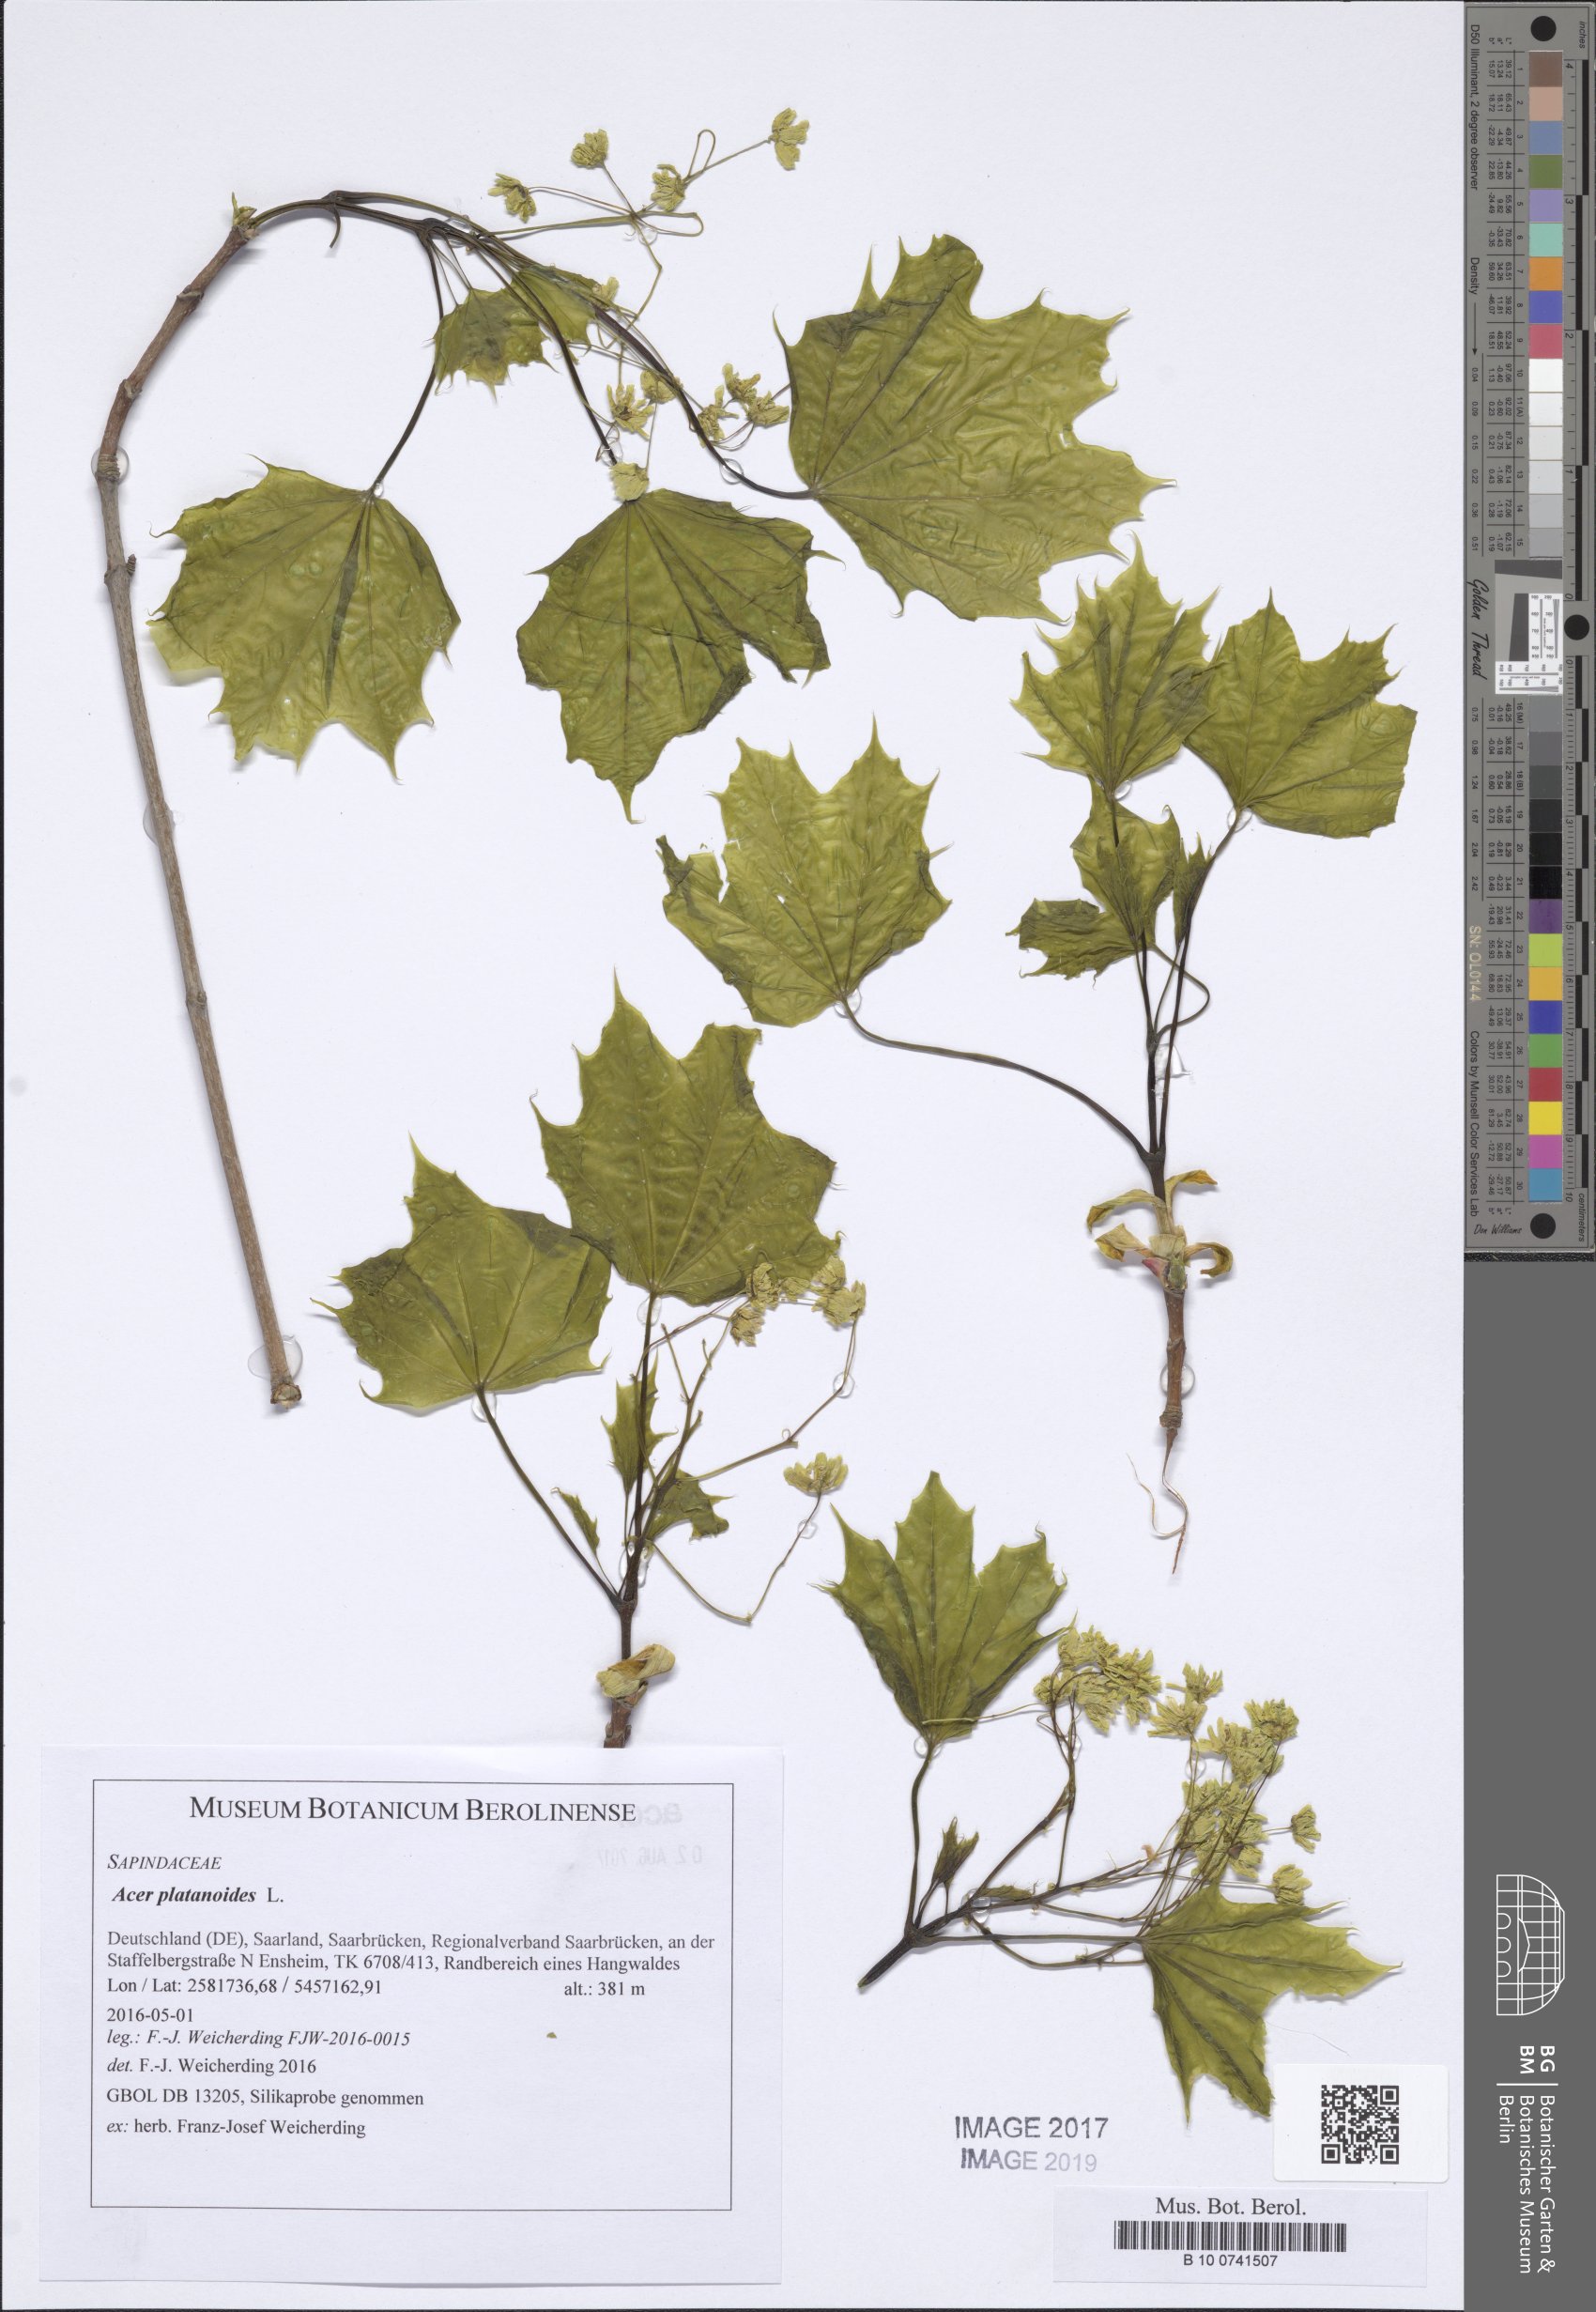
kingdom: Plantae
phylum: Tracheophyta
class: Magnoliopsida
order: Sapindales
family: Sapindaceae
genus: Acer
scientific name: Acer platanoides
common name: Norway maple
